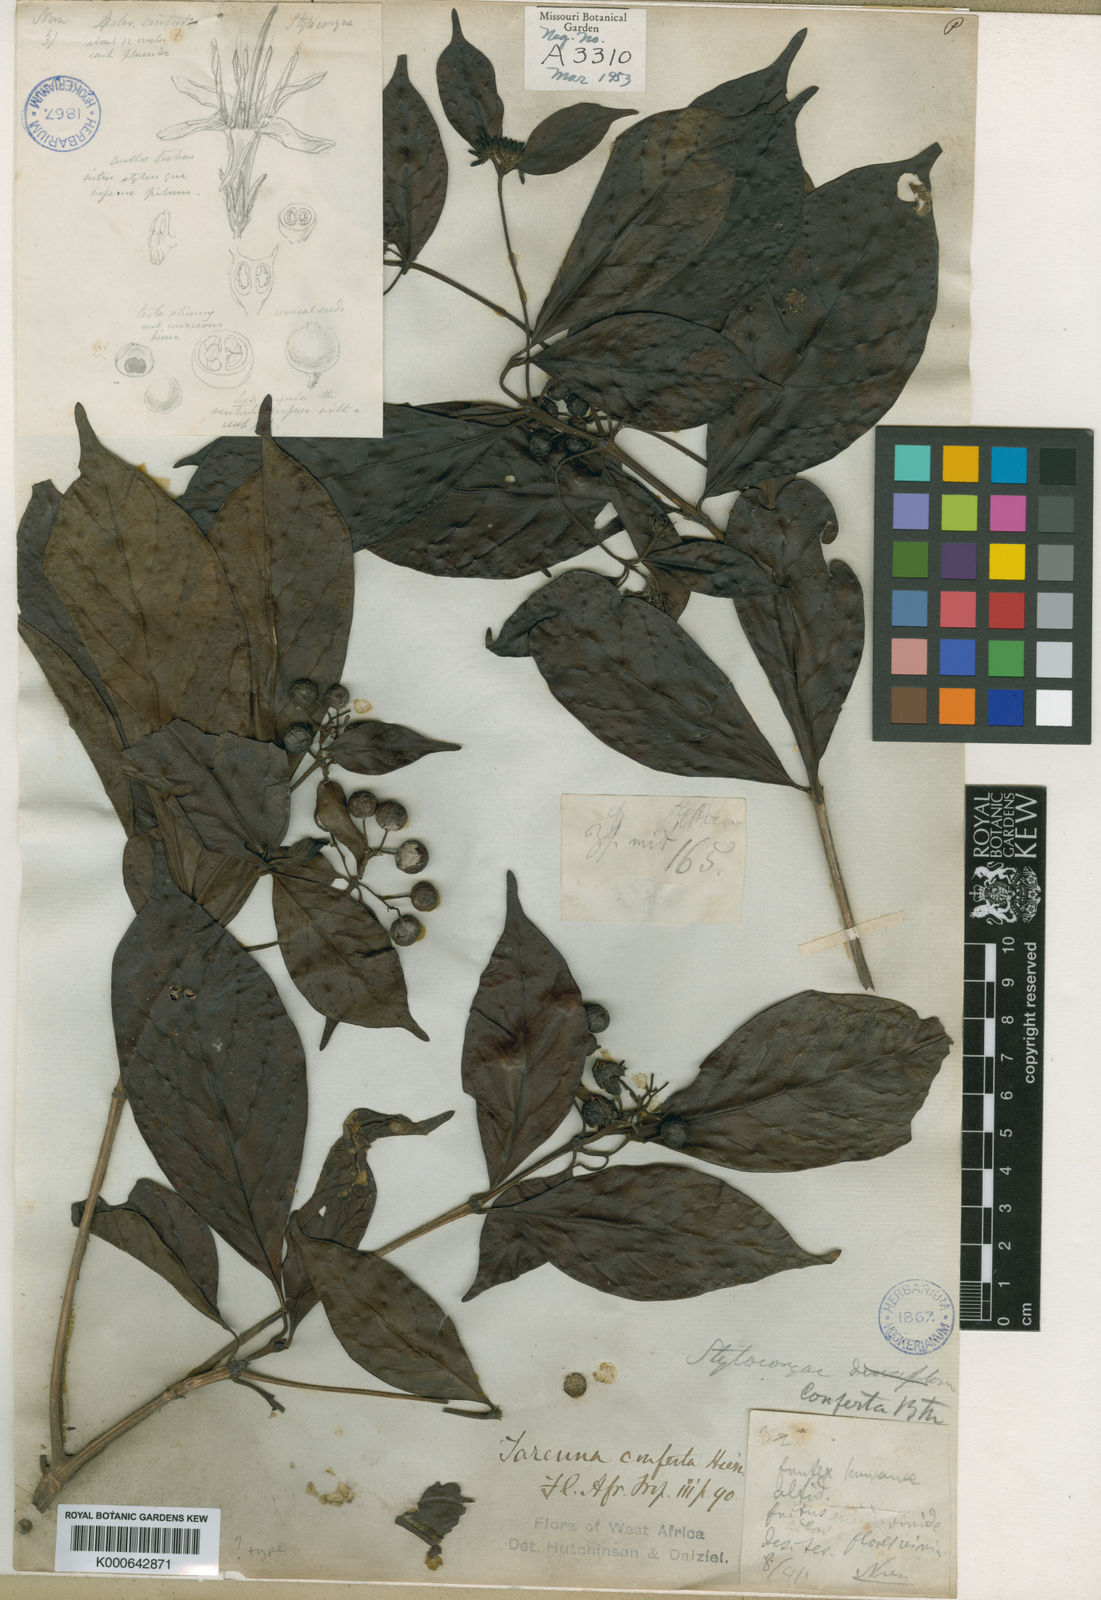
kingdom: Plantae
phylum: Tracheophyta
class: Magnoliopsida
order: Gentianales
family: Rubiaceae
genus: Tarenna
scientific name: Tarenna conferta
